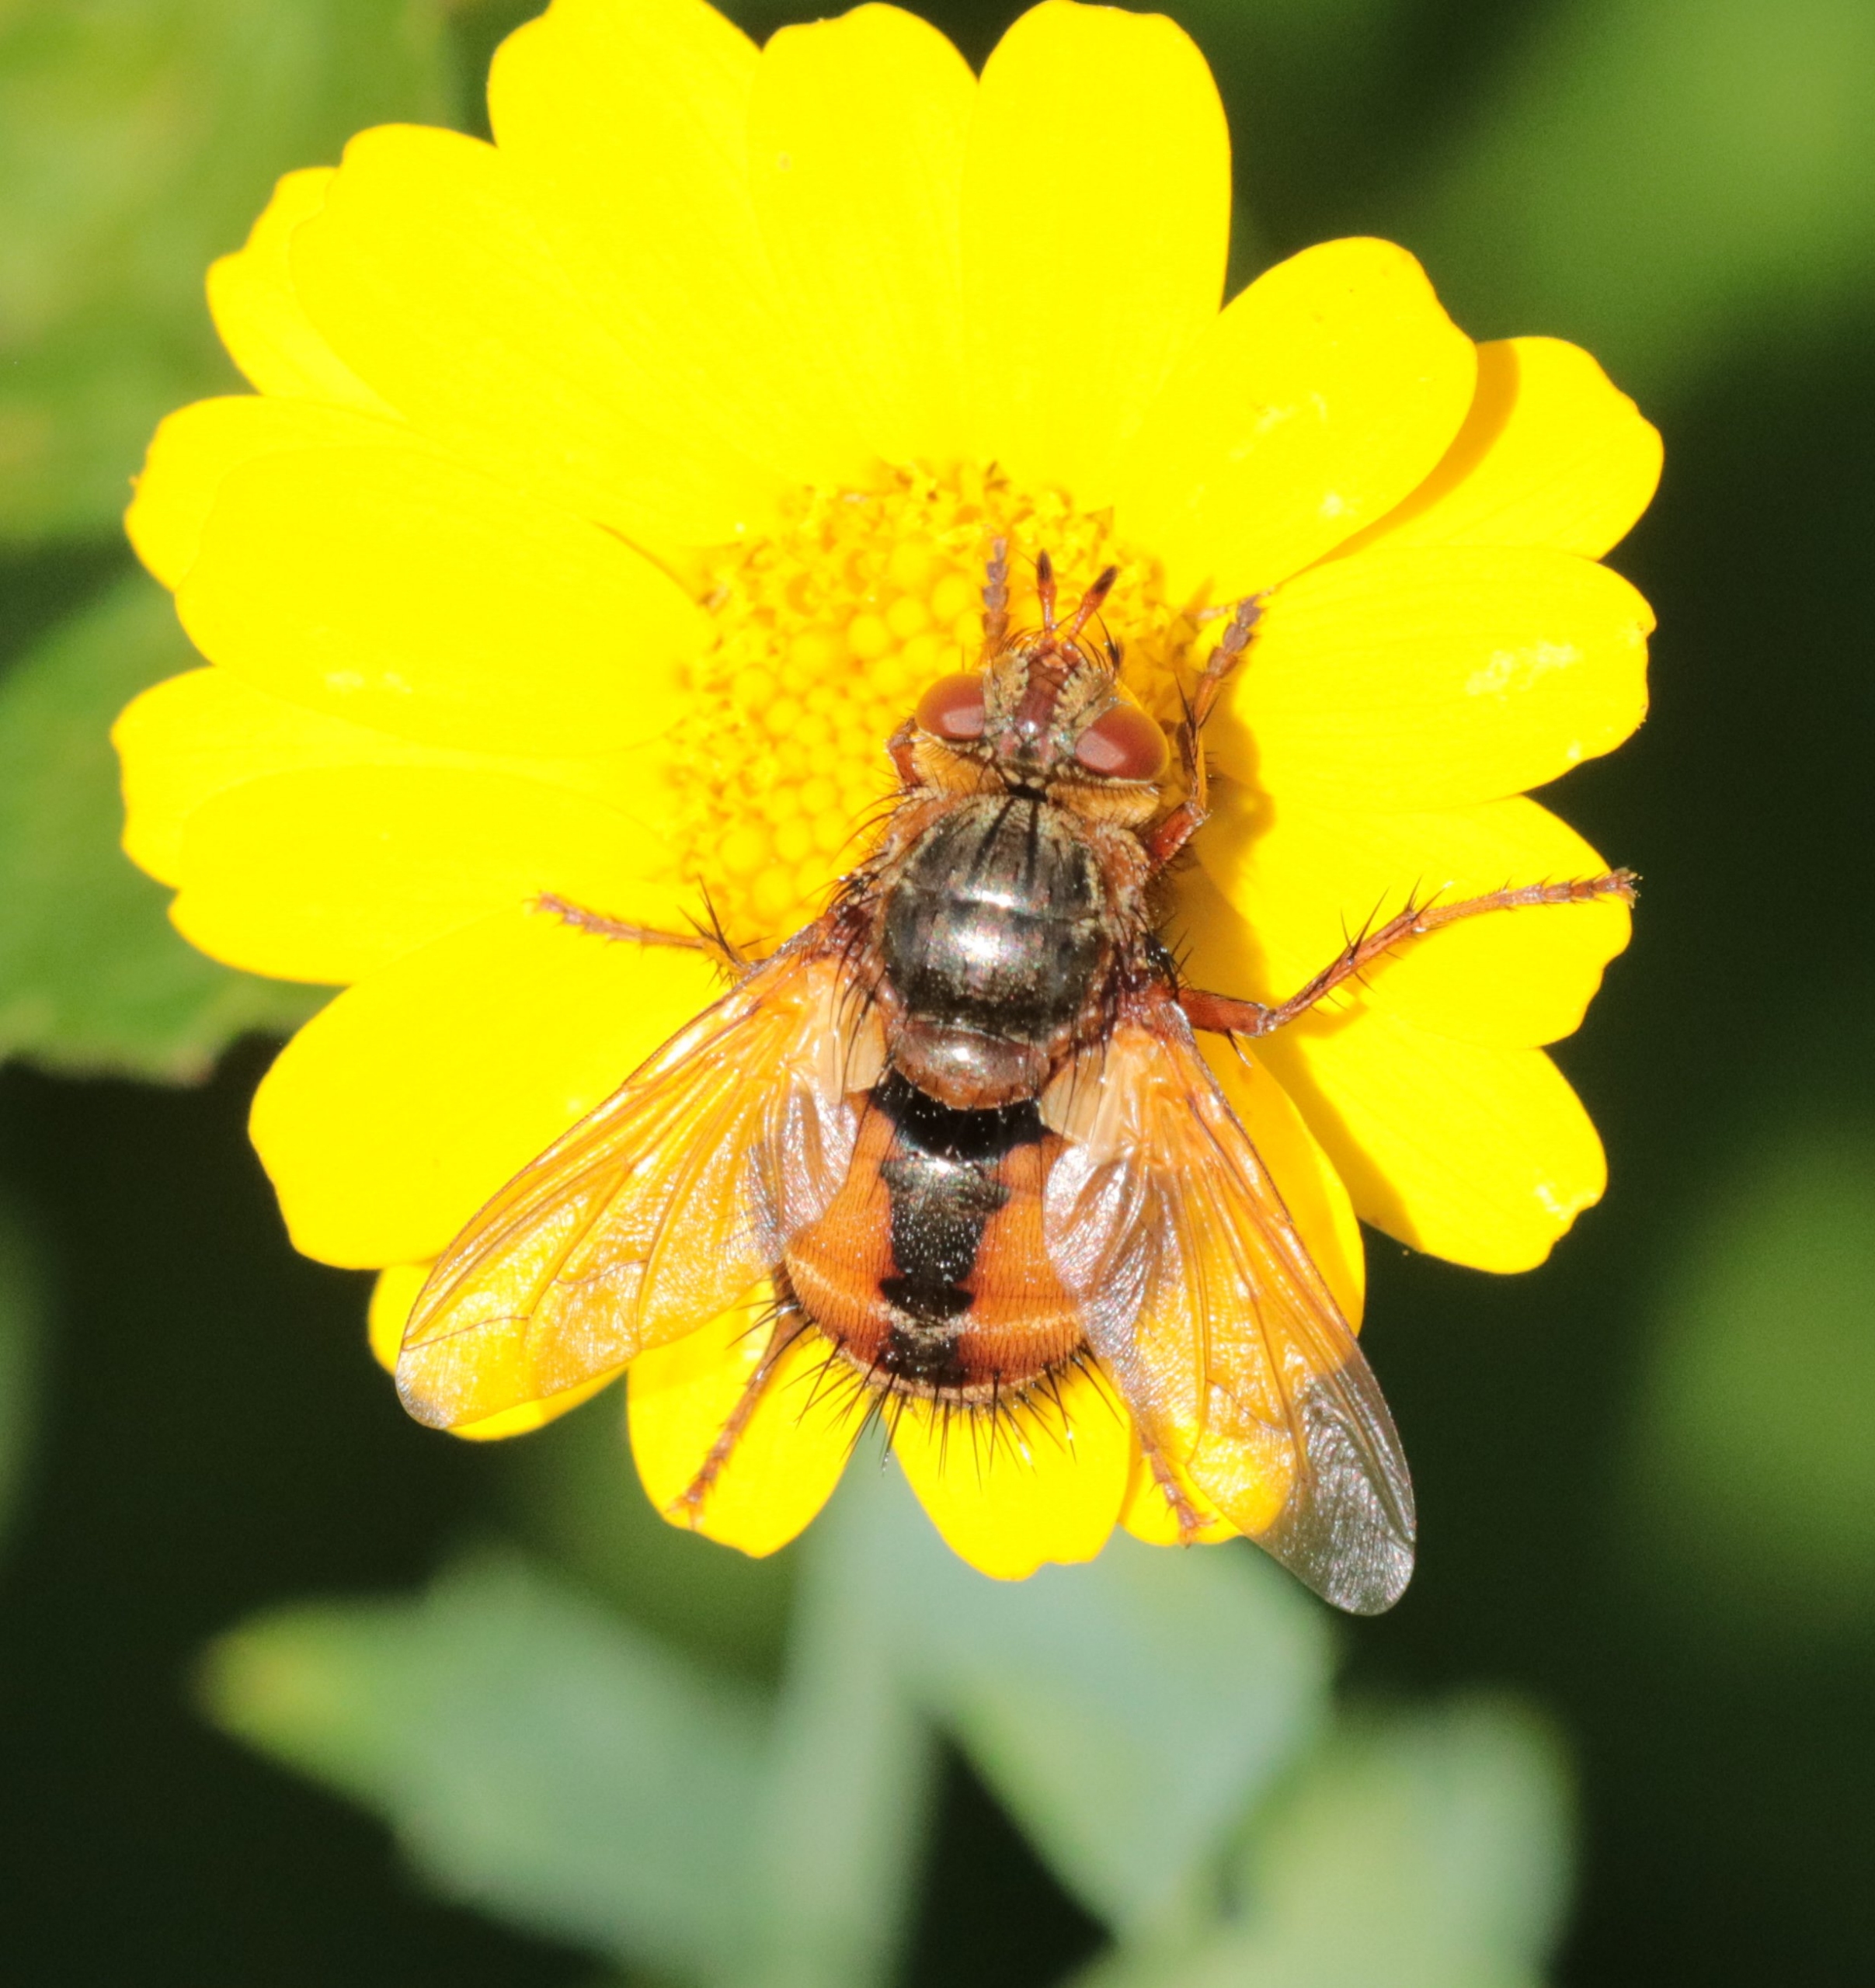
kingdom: Animalia
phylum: Arthropoda
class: Insecta
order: Diptera
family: Tachinidae
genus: Tachina
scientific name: Tachina fera
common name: Mellemfluen oskar
